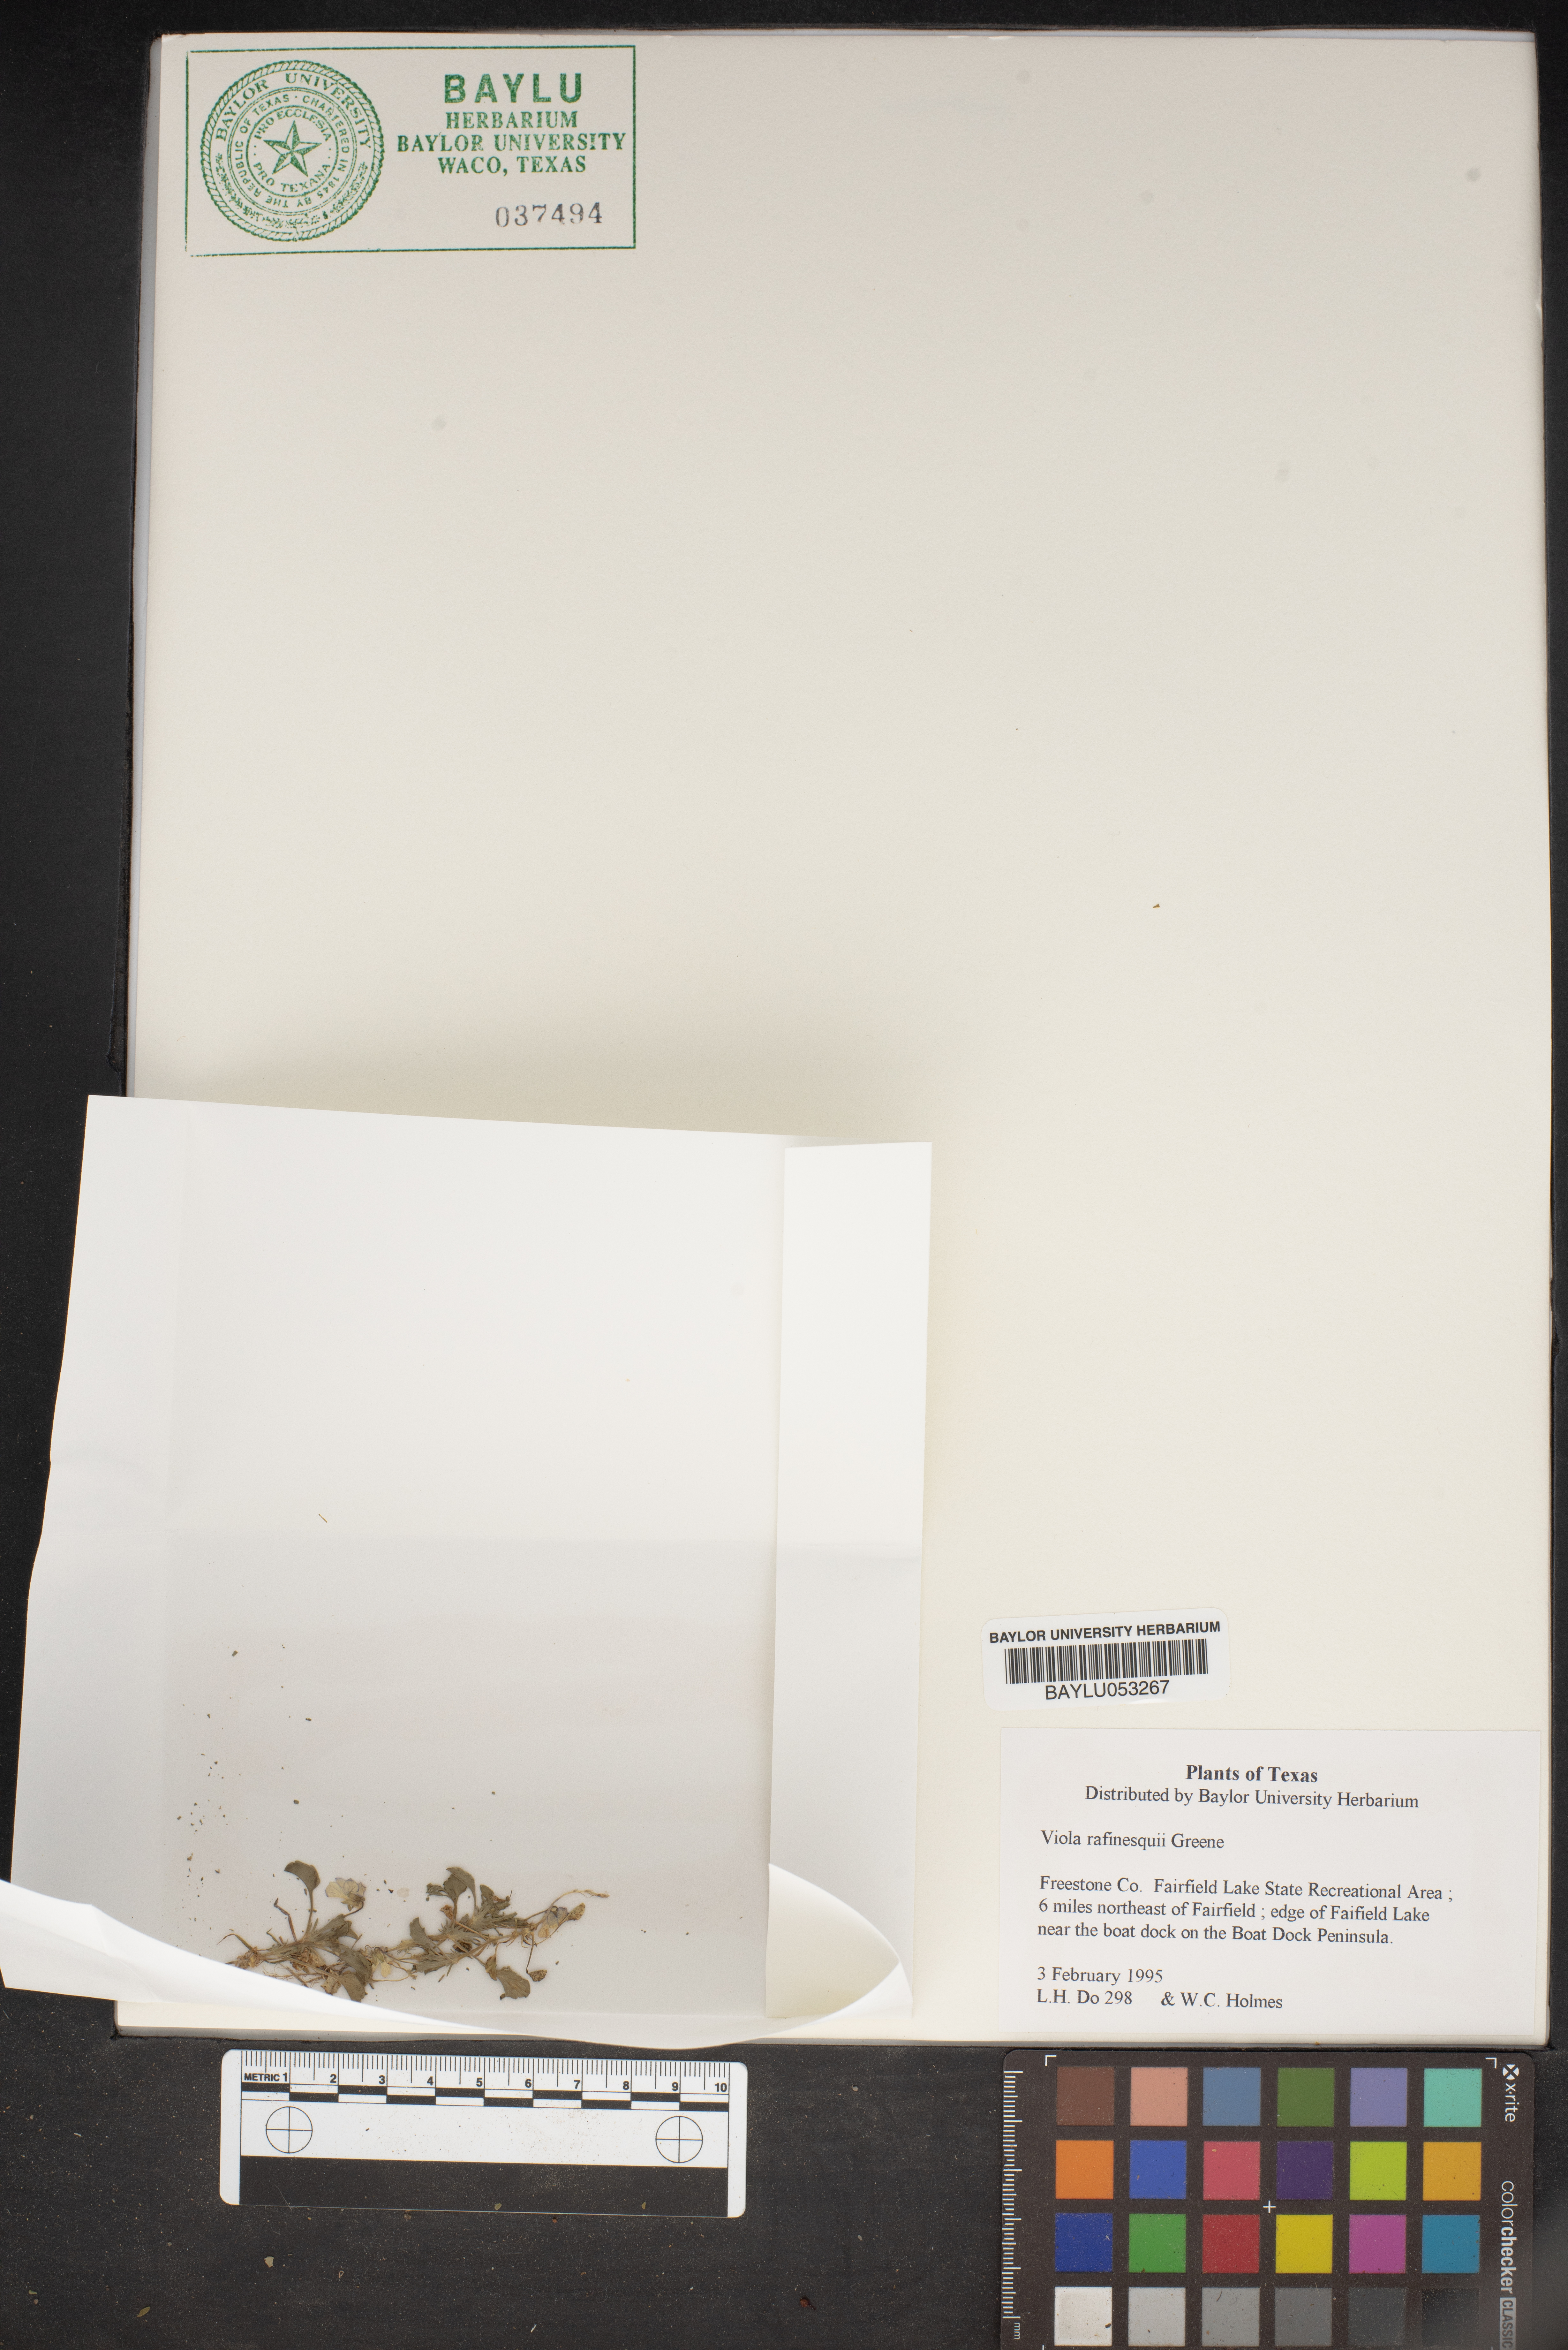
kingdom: Plantae
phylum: Tracheophyta
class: Magnoliopsida
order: Malpighiales
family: Violaceae
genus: Viola
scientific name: Viola rafinesquei
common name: American field pansy
